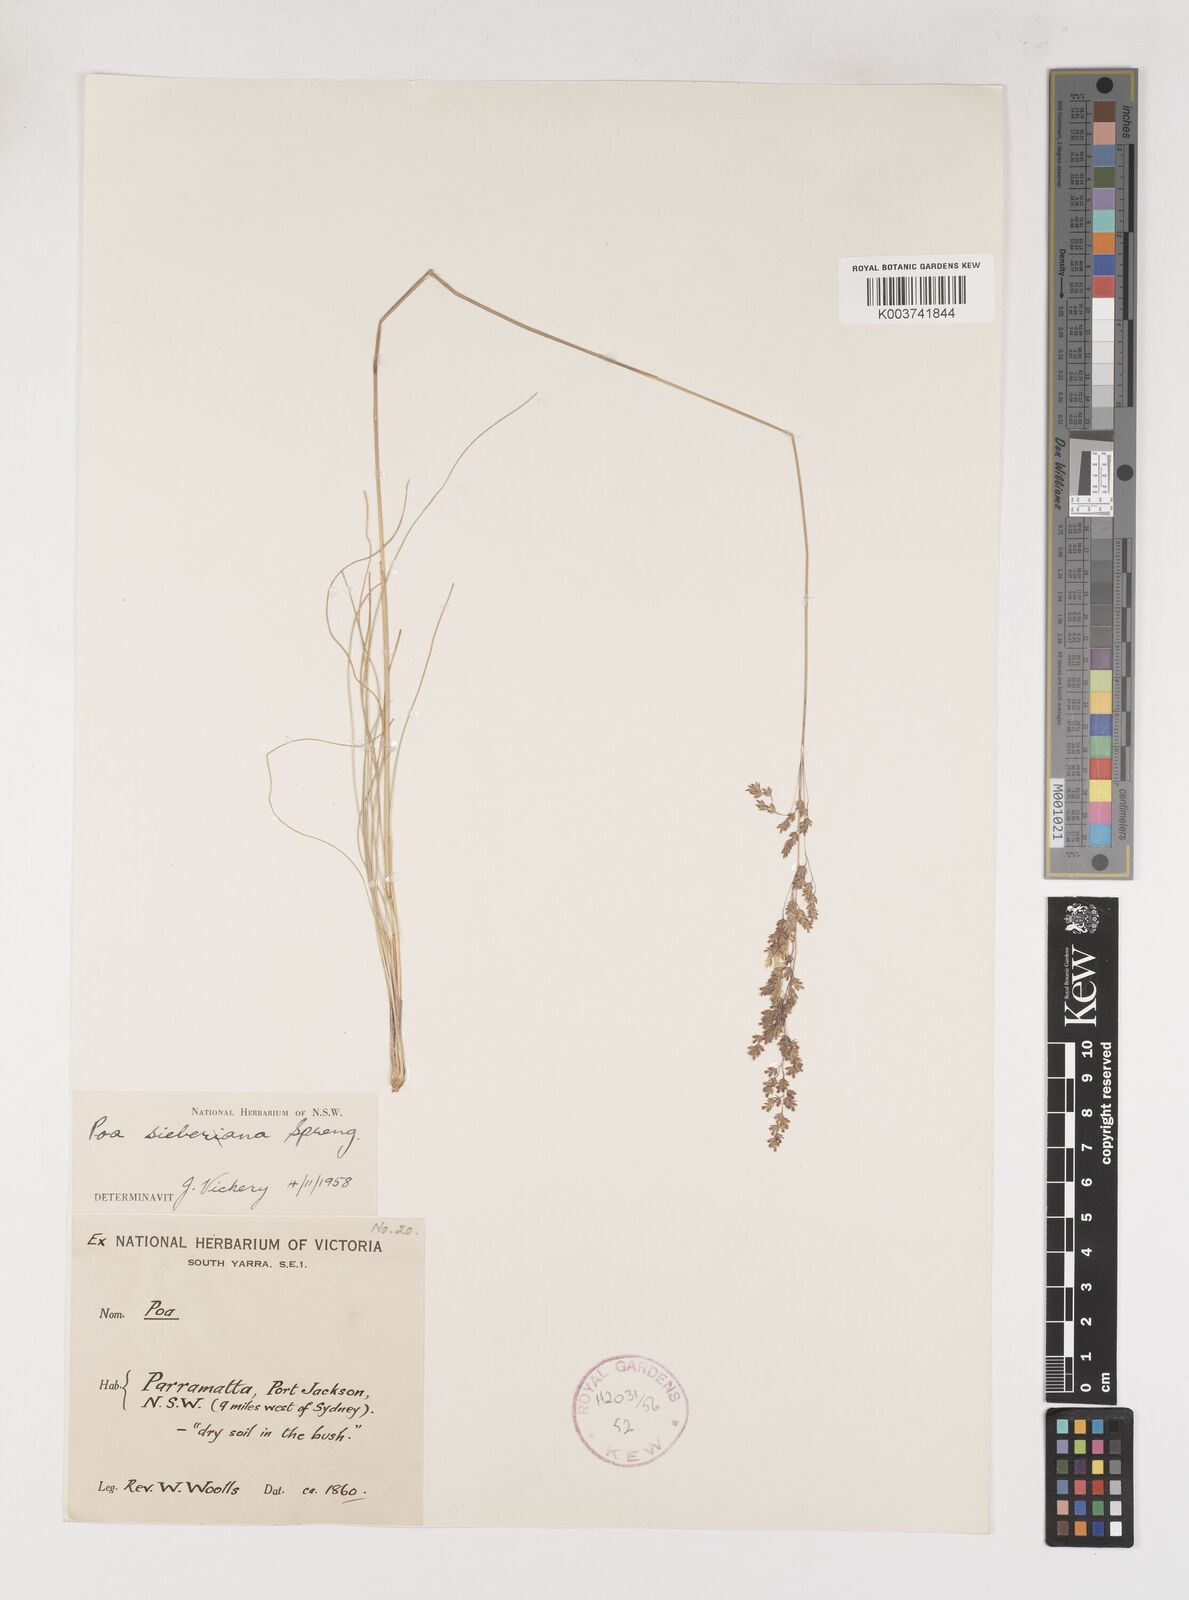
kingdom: Plantae
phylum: Tracheophyta
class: Liliopsida
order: Poales
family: Poaceae
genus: Poa
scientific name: Poa sieberiana
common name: Tussock poa
